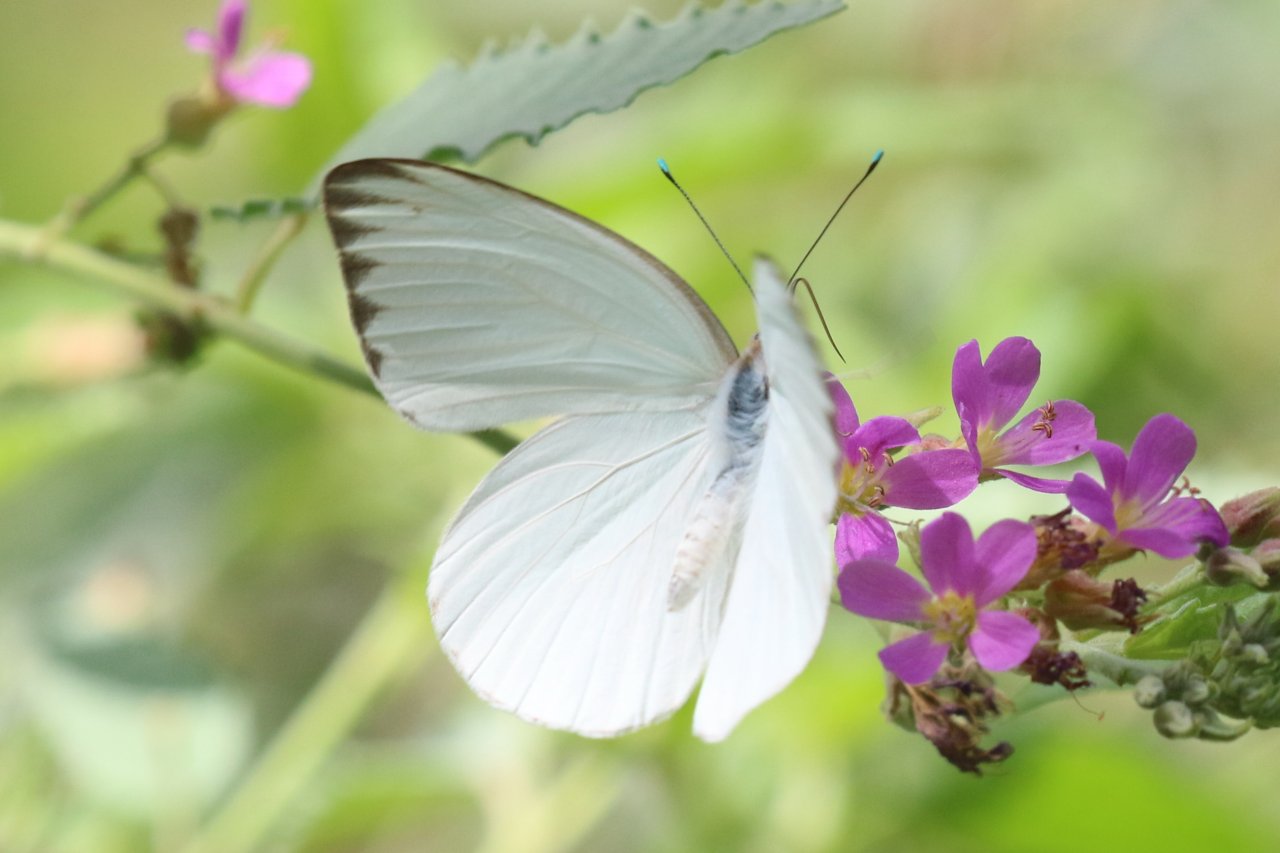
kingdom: Animalia
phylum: Arthropoda
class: Insecta
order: Lepidoptera
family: Pieridae
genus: Ascia
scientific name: Ascia monuste
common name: Great Southern White
